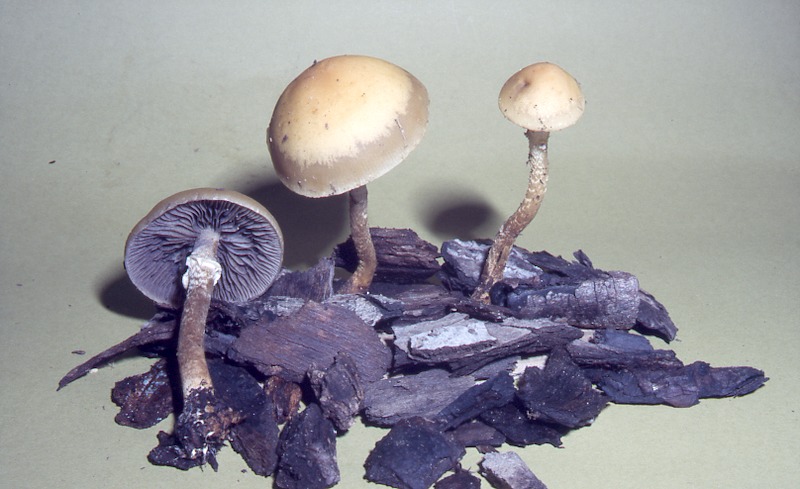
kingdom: Fungi
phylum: Basidiomycota
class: Agaricomycetes
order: Agaricales
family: Strophariaceae
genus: Leratiomyces
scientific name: Leratiomyces squamosus
